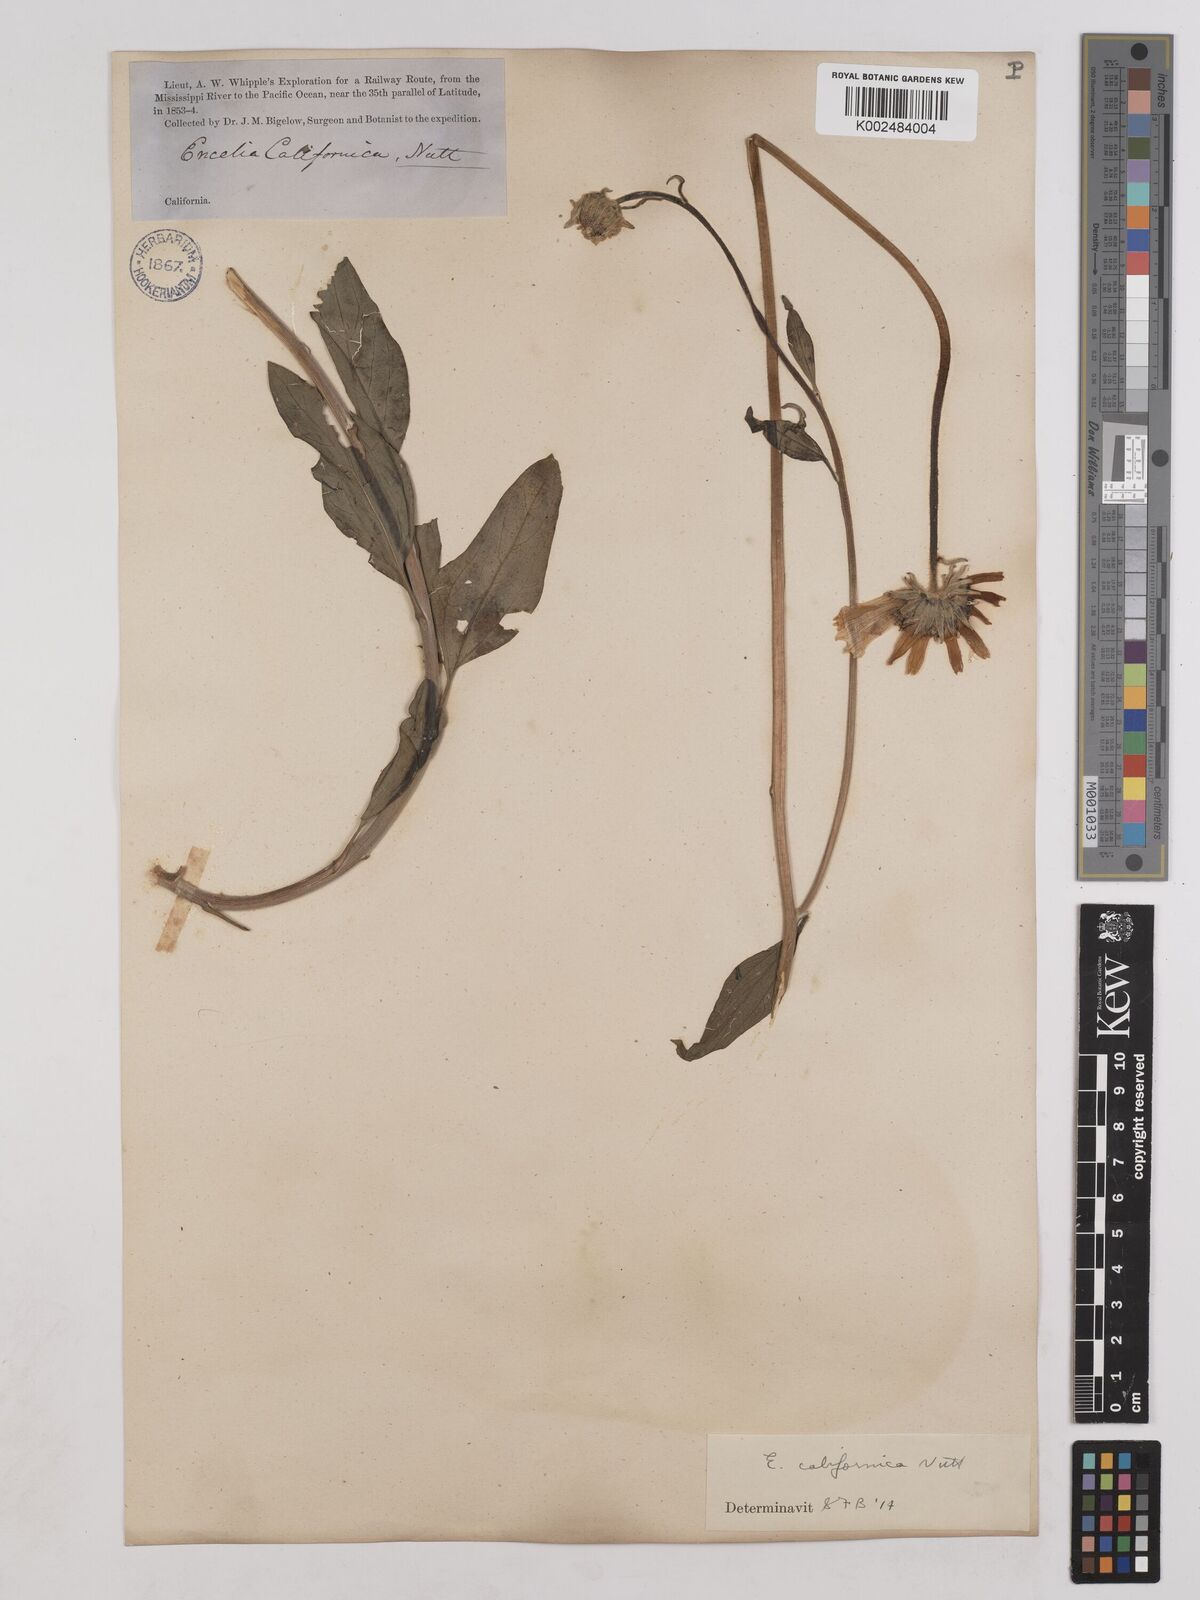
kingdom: Plantae
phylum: Tracheophyta
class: Magnoliopsida
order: Asterales
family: Asteraceae
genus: Encelia
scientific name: Encelia californica
